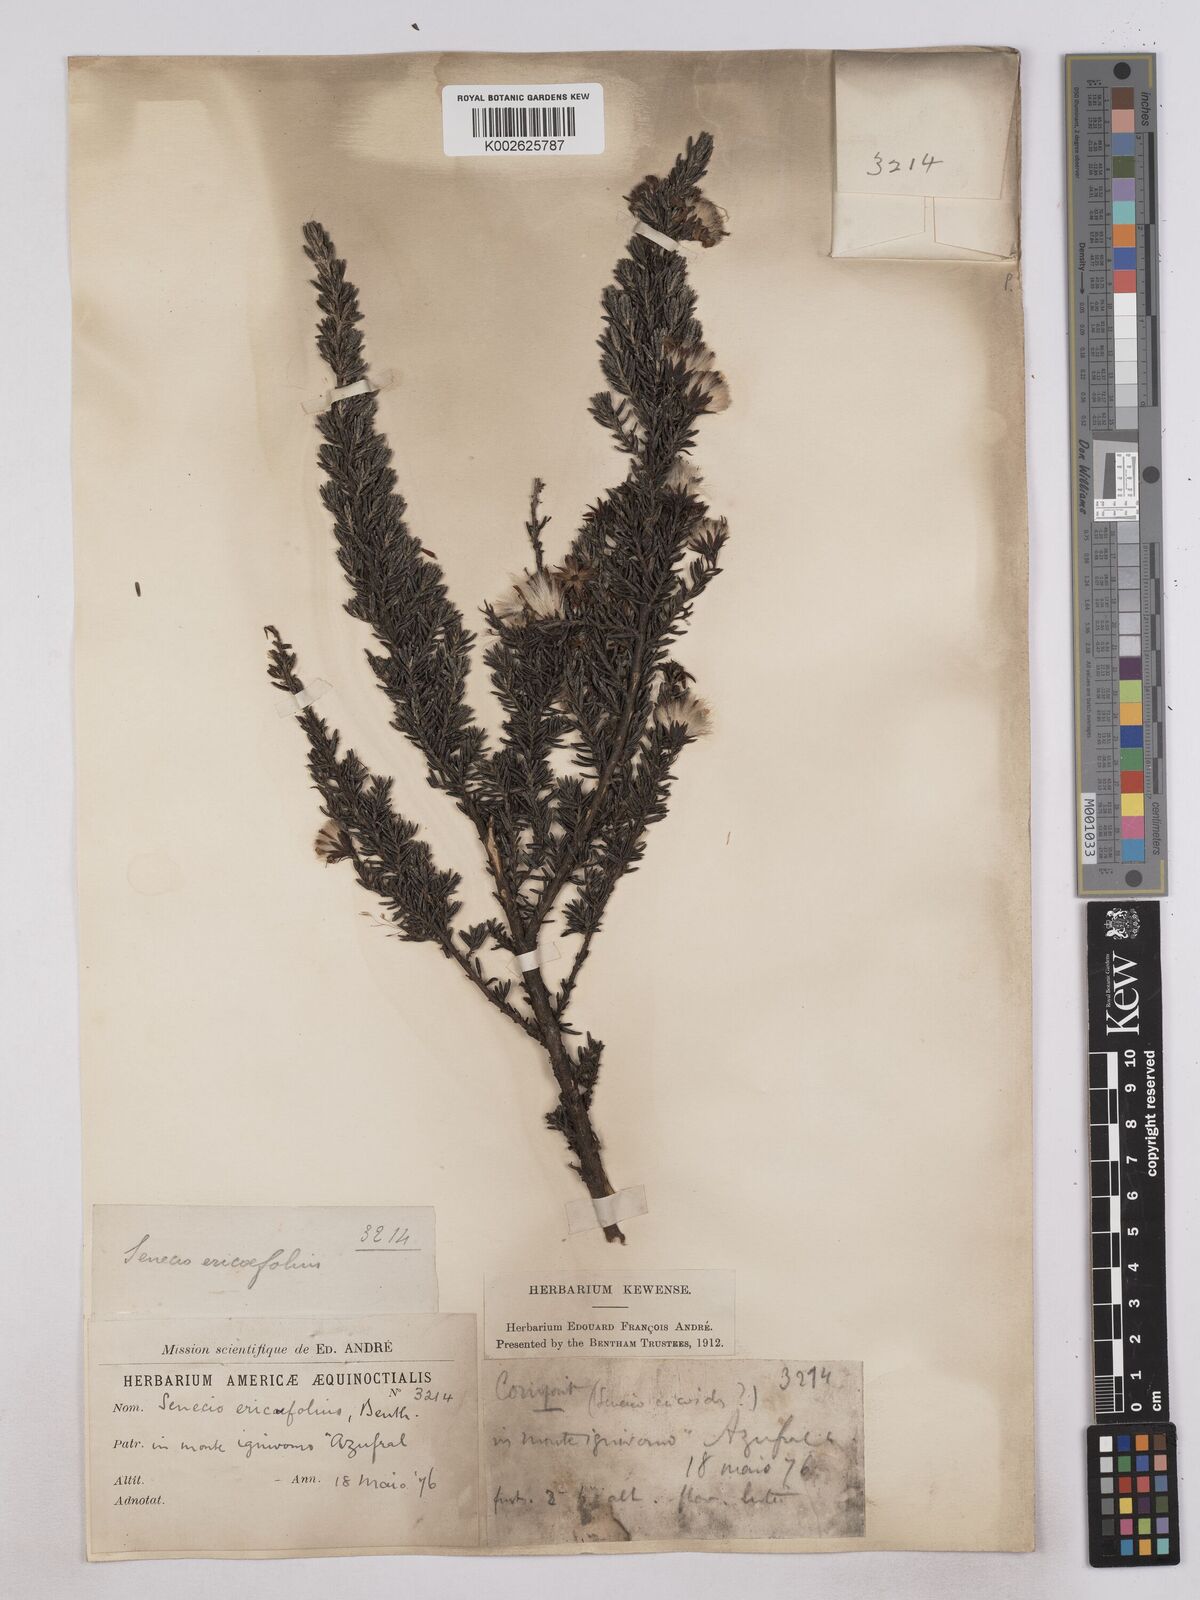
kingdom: Plantae
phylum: Tracheophyta
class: Magnoliopsida
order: Asterales
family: Asteraceae
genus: Monticalia
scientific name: Monticalia peruviana
